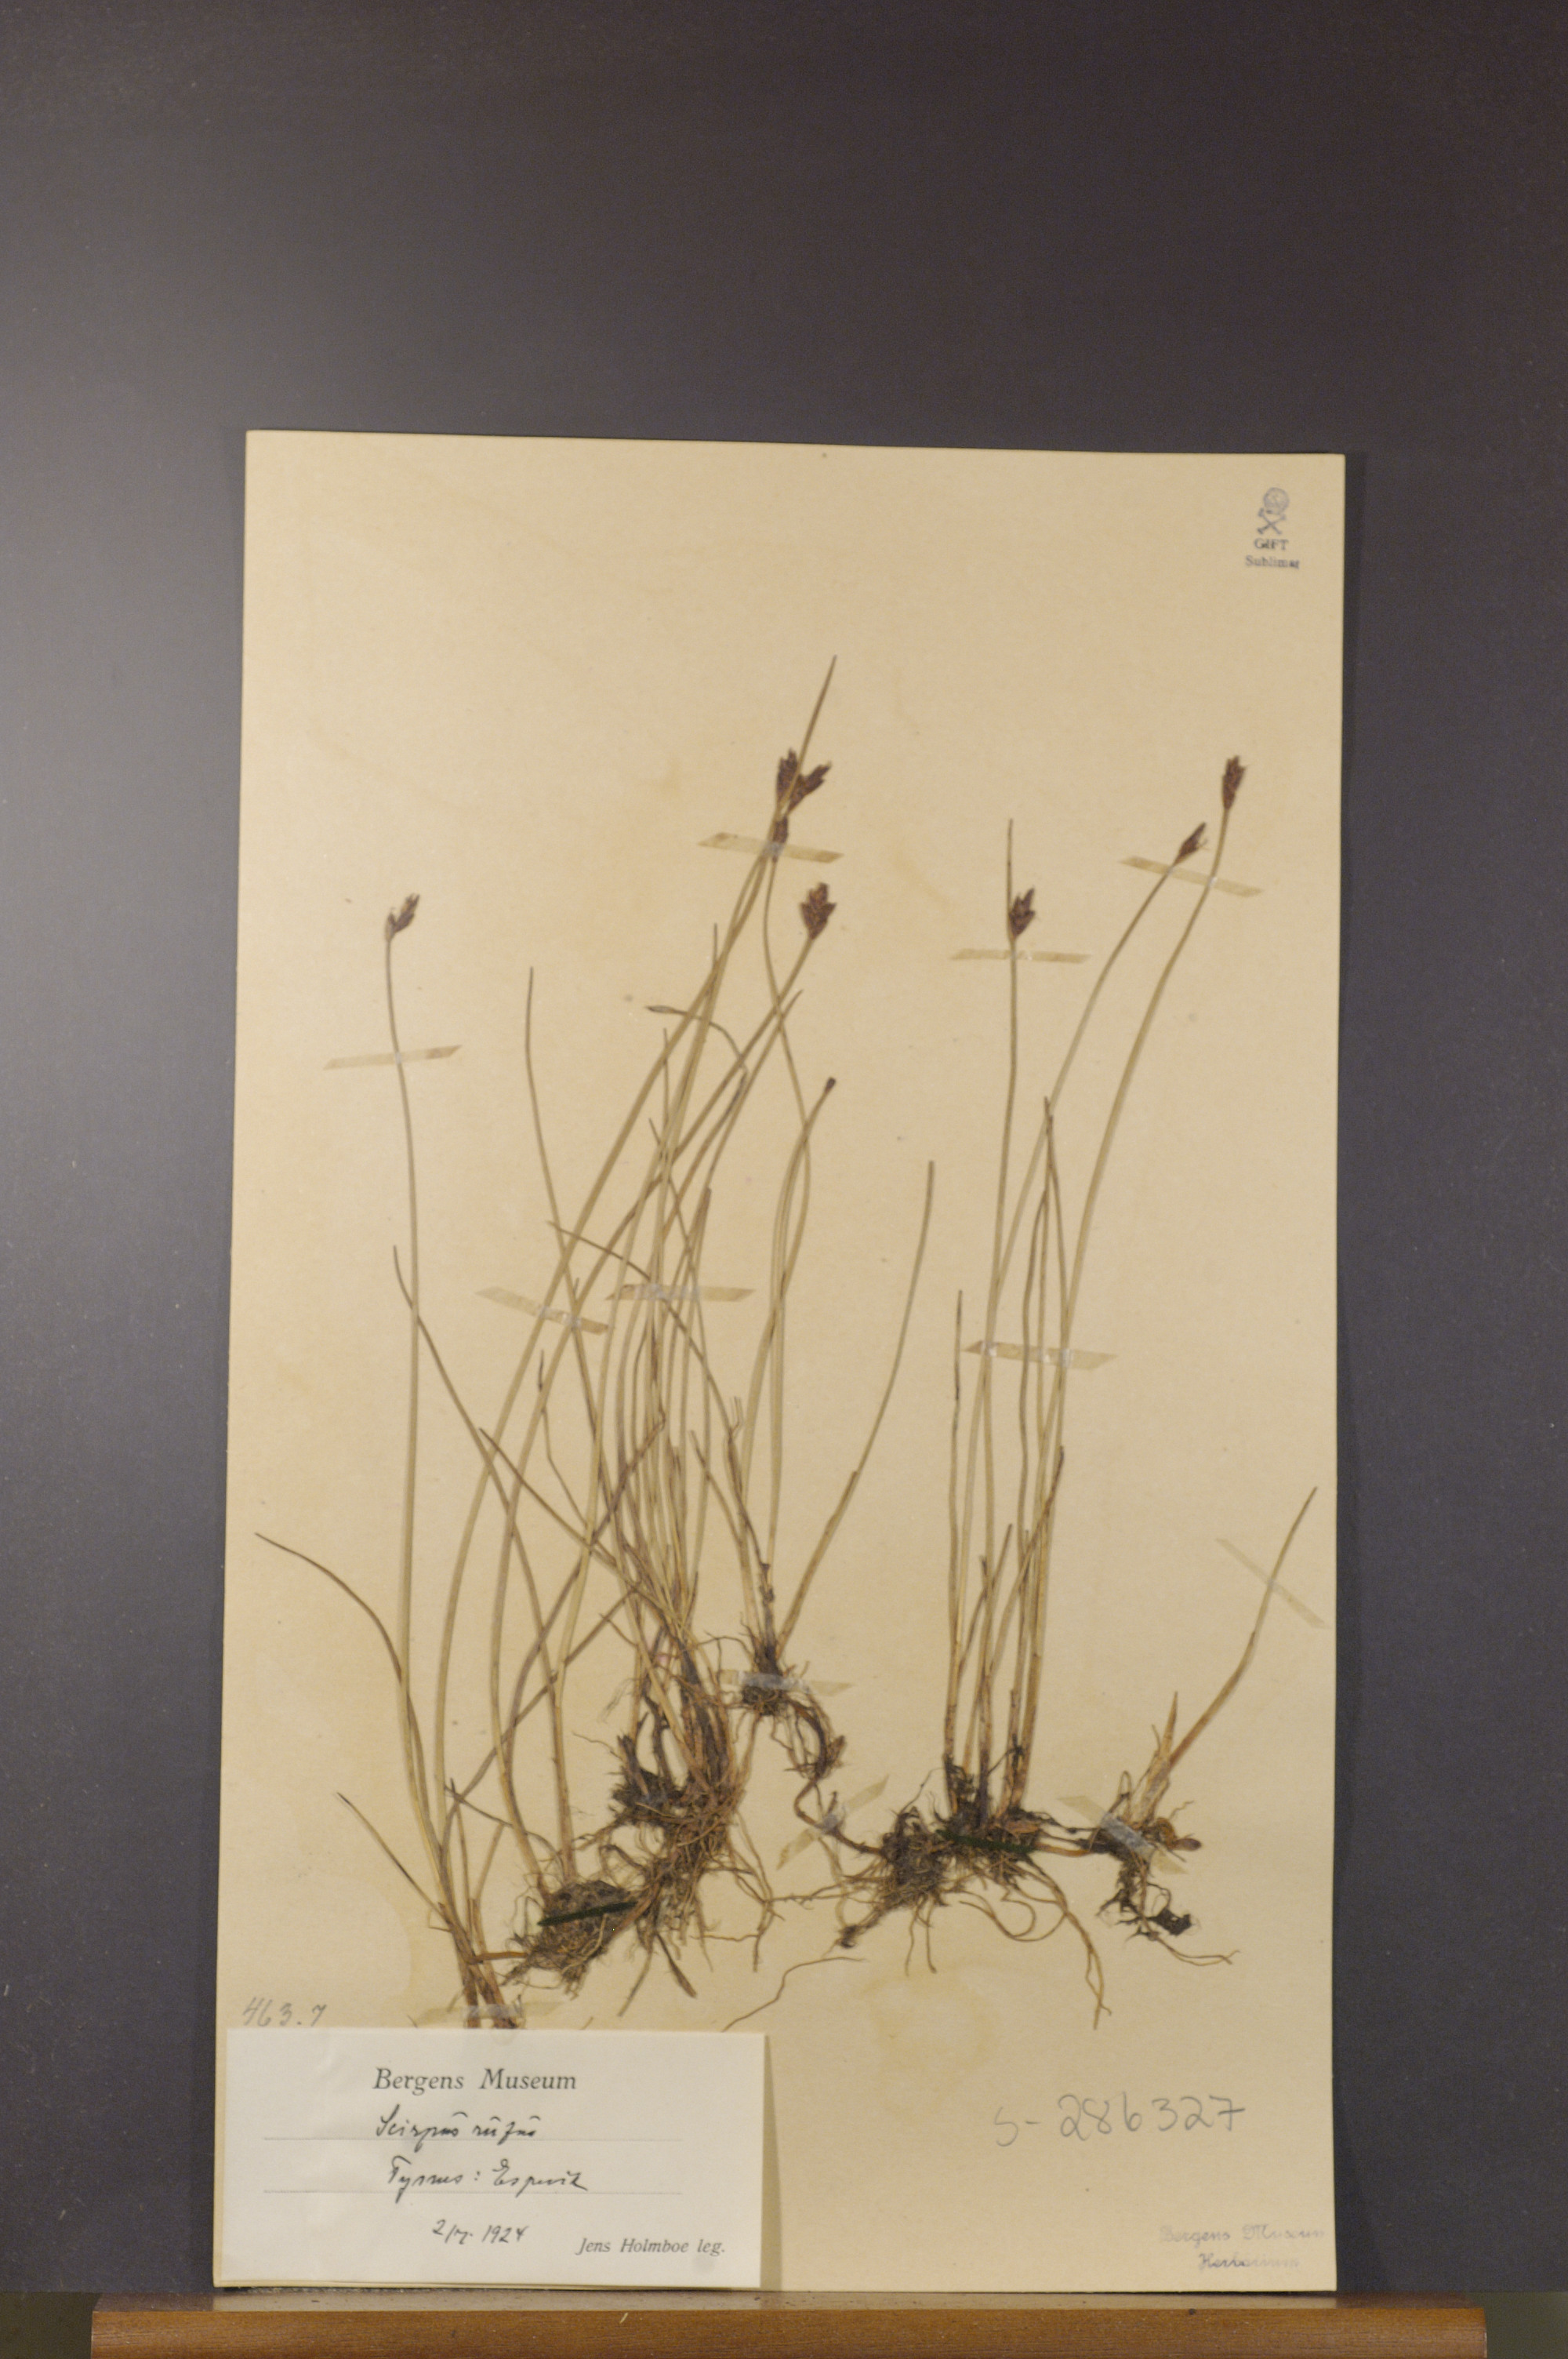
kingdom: Plantae
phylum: Tracheophyta
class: Liliopsida
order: Poales
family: Cyperaceae
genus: Blysmus
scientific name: Blysmus rufus
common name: Saltmarsh flat-sedge
